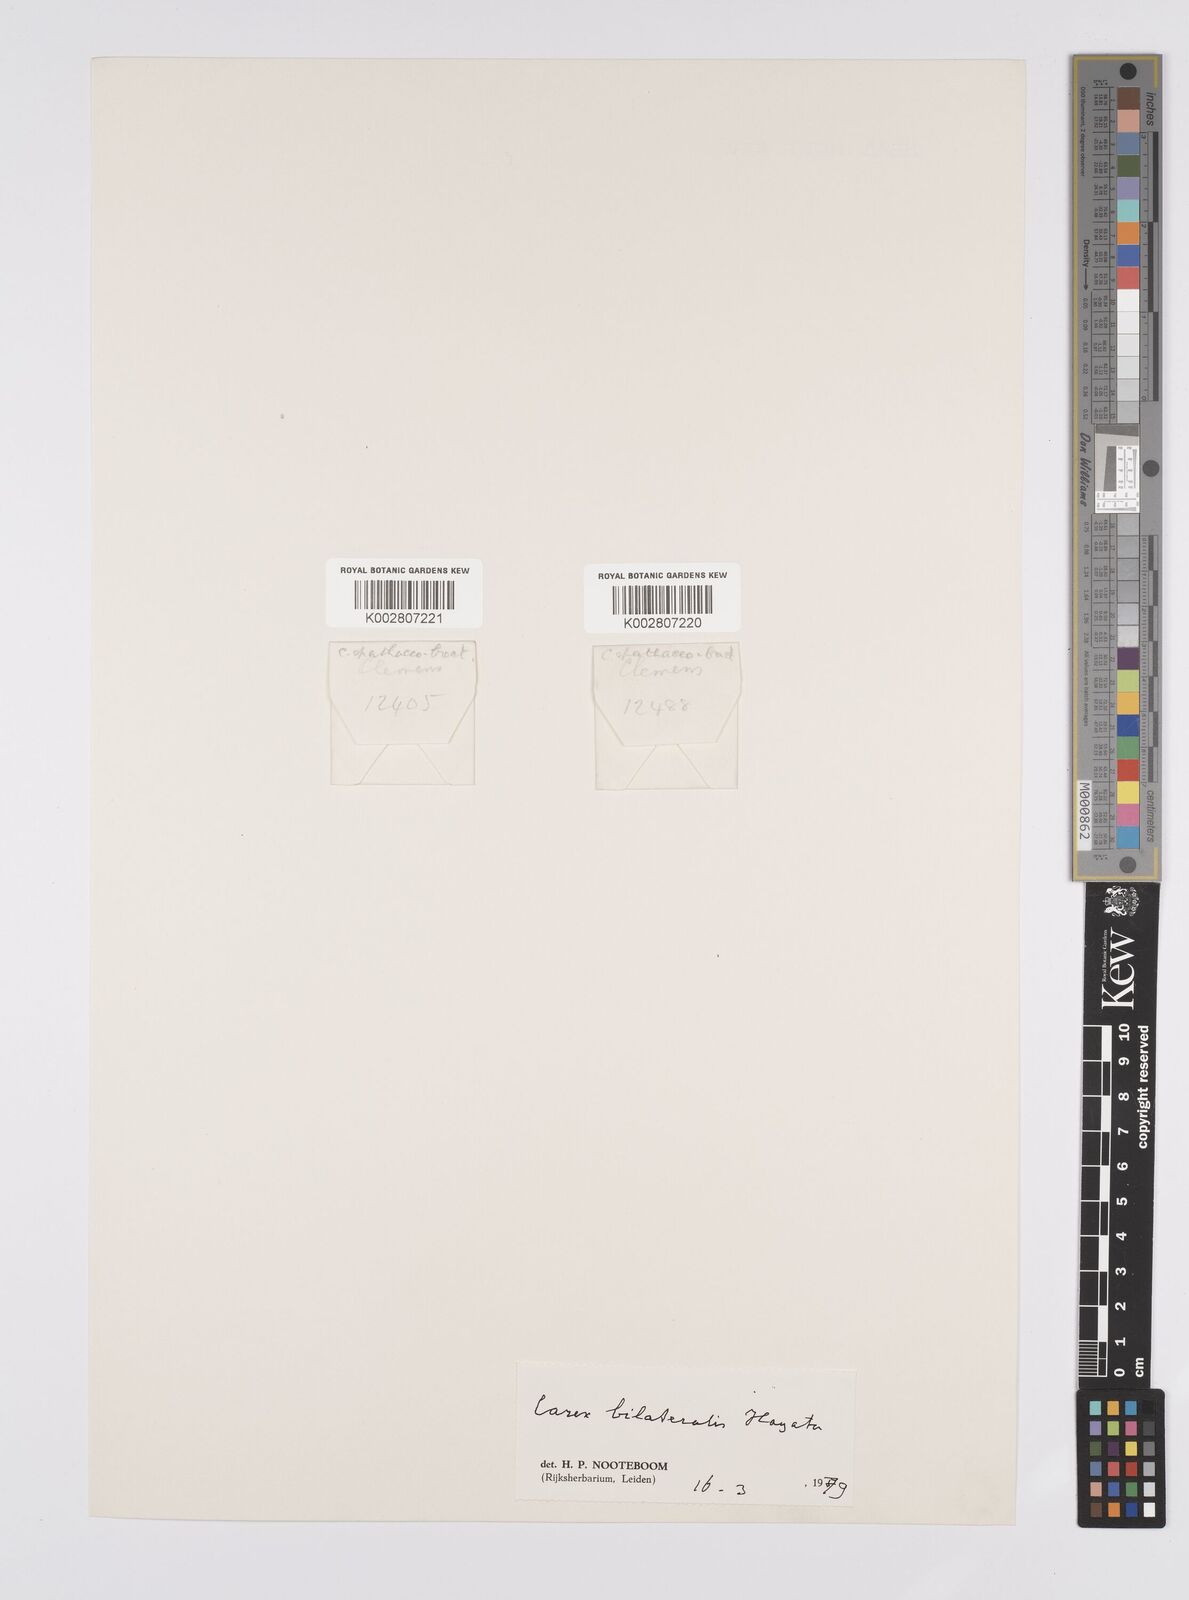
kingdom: Plantae
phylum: Tracheophyta
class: Liliopsida
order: Poales
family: Cyperaceae
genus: Carex
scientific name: Carex bilateralis
